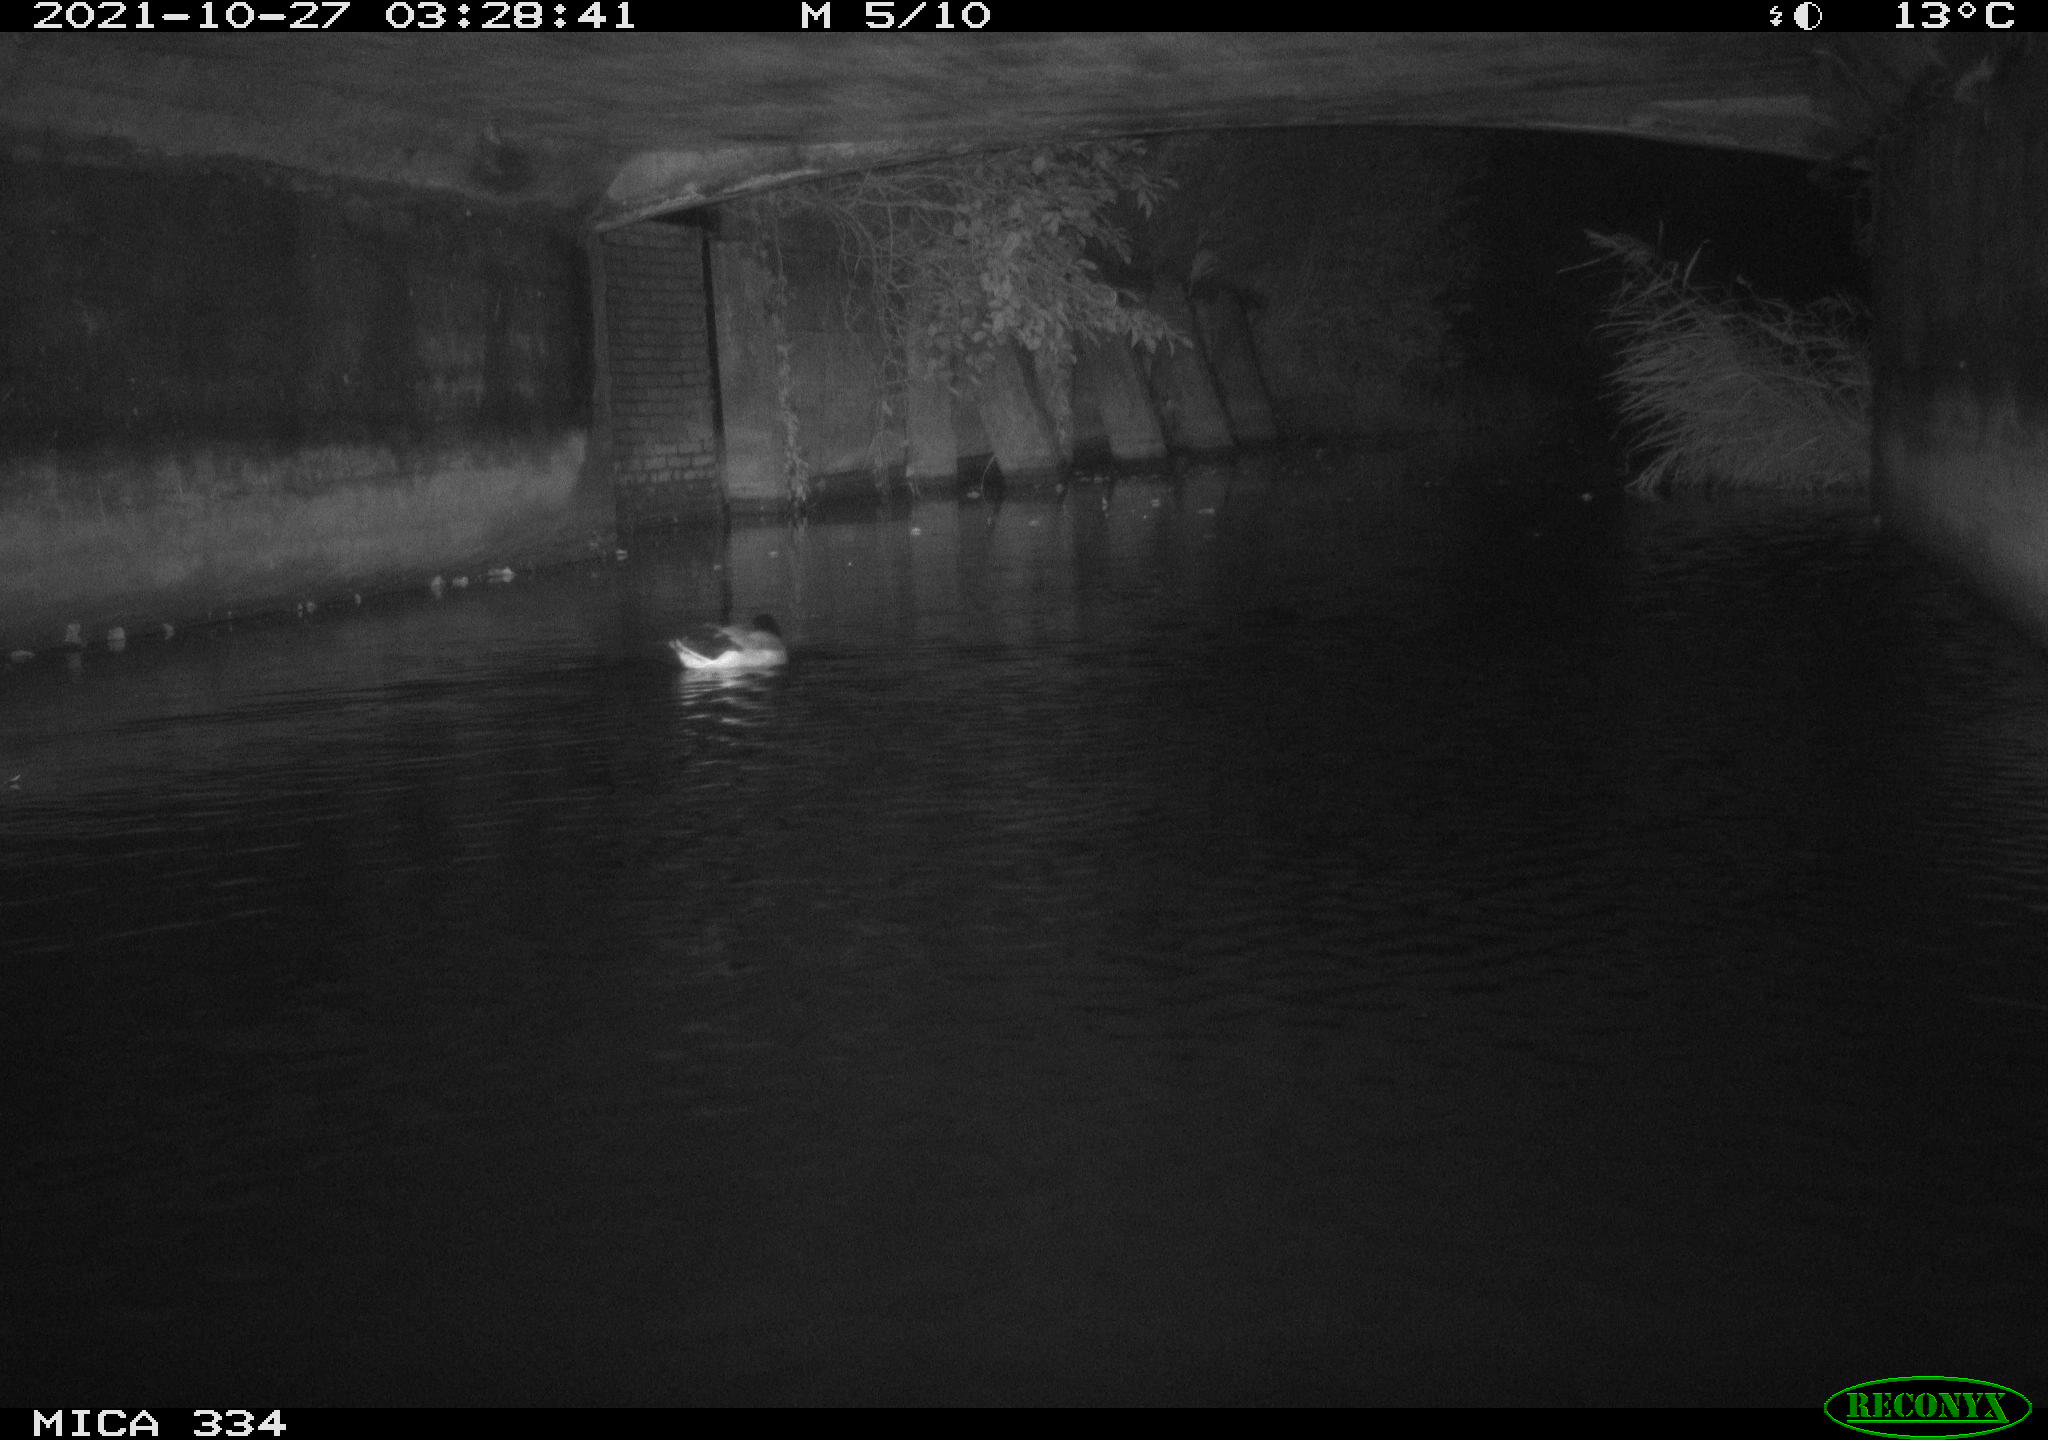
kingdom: Animalia
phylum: Chordata
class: Aves
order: Anseriformes
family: Anatidae
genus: Anas
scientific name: Anas platyrhynchos
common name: Mallard
